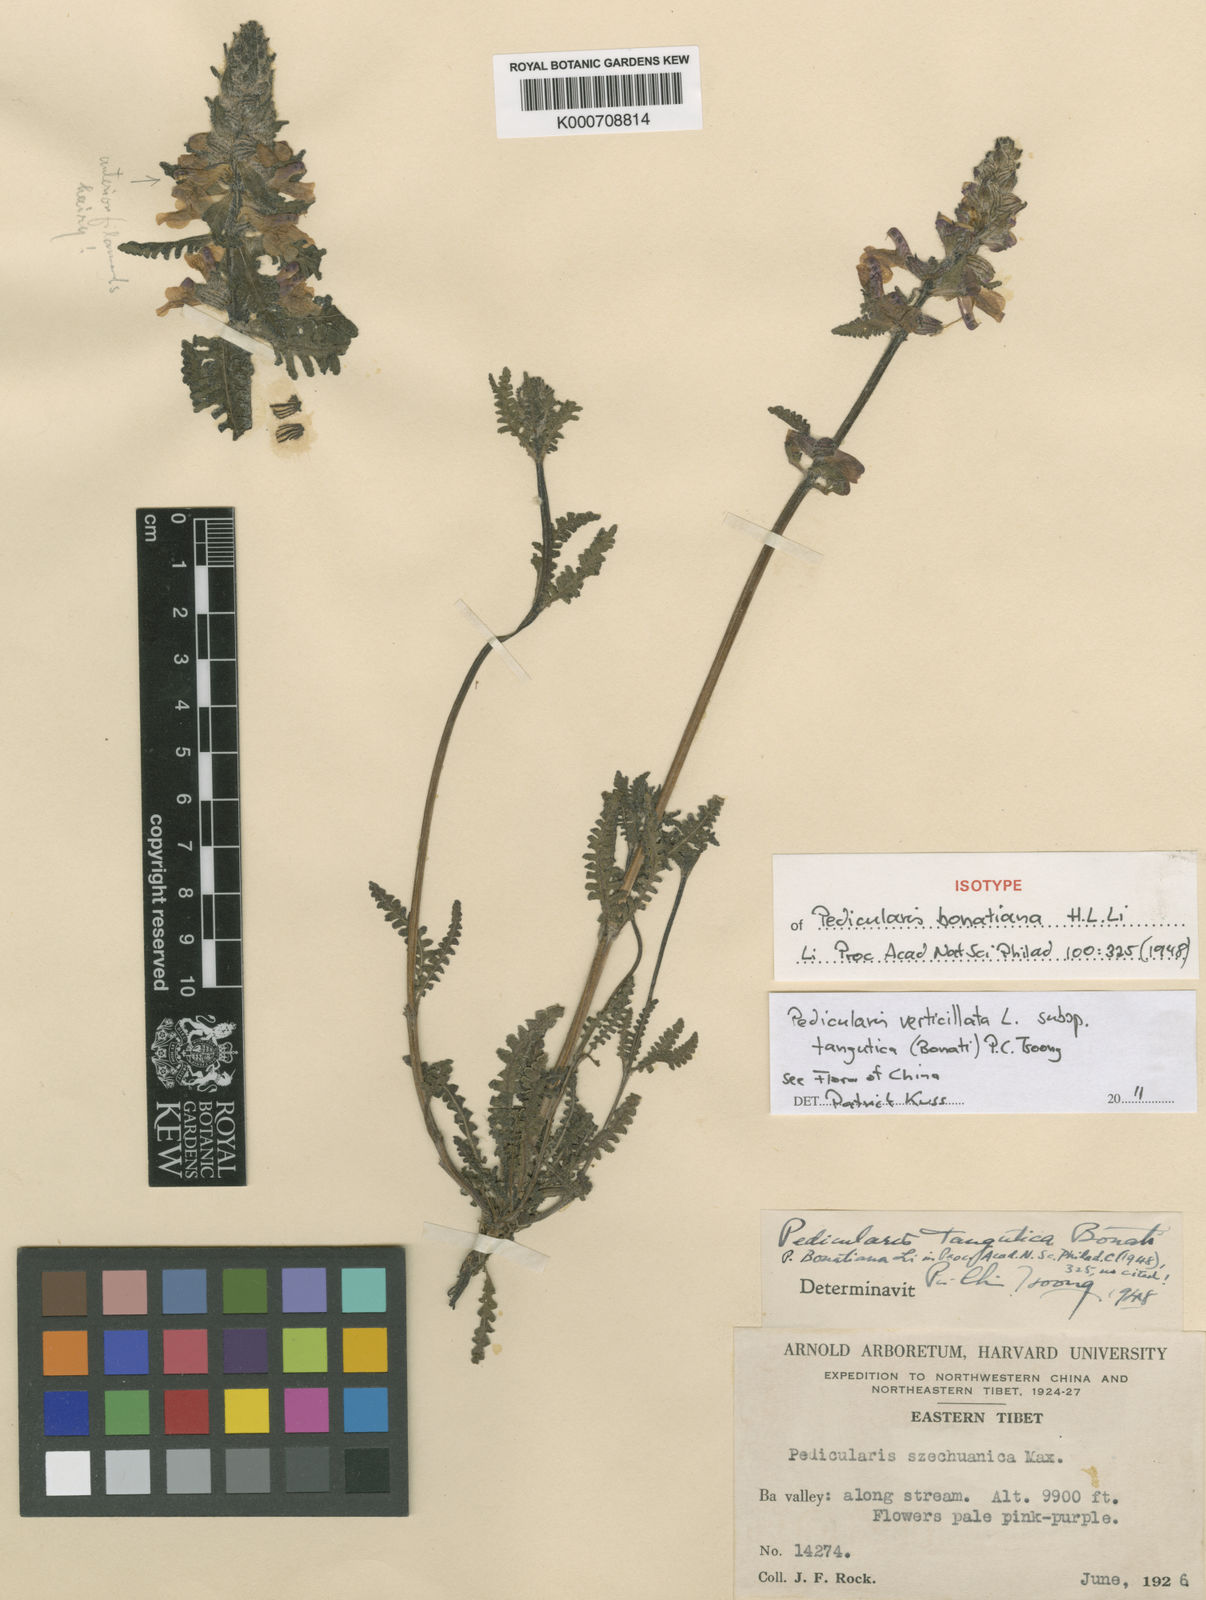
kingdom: Plantae
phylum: Tracheophyta
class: Magnoliopsida
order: Lamiales
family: Orobanchaceae
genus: Pedicularis
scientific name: Pedicularis verticillata
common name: Whorled lousewort
